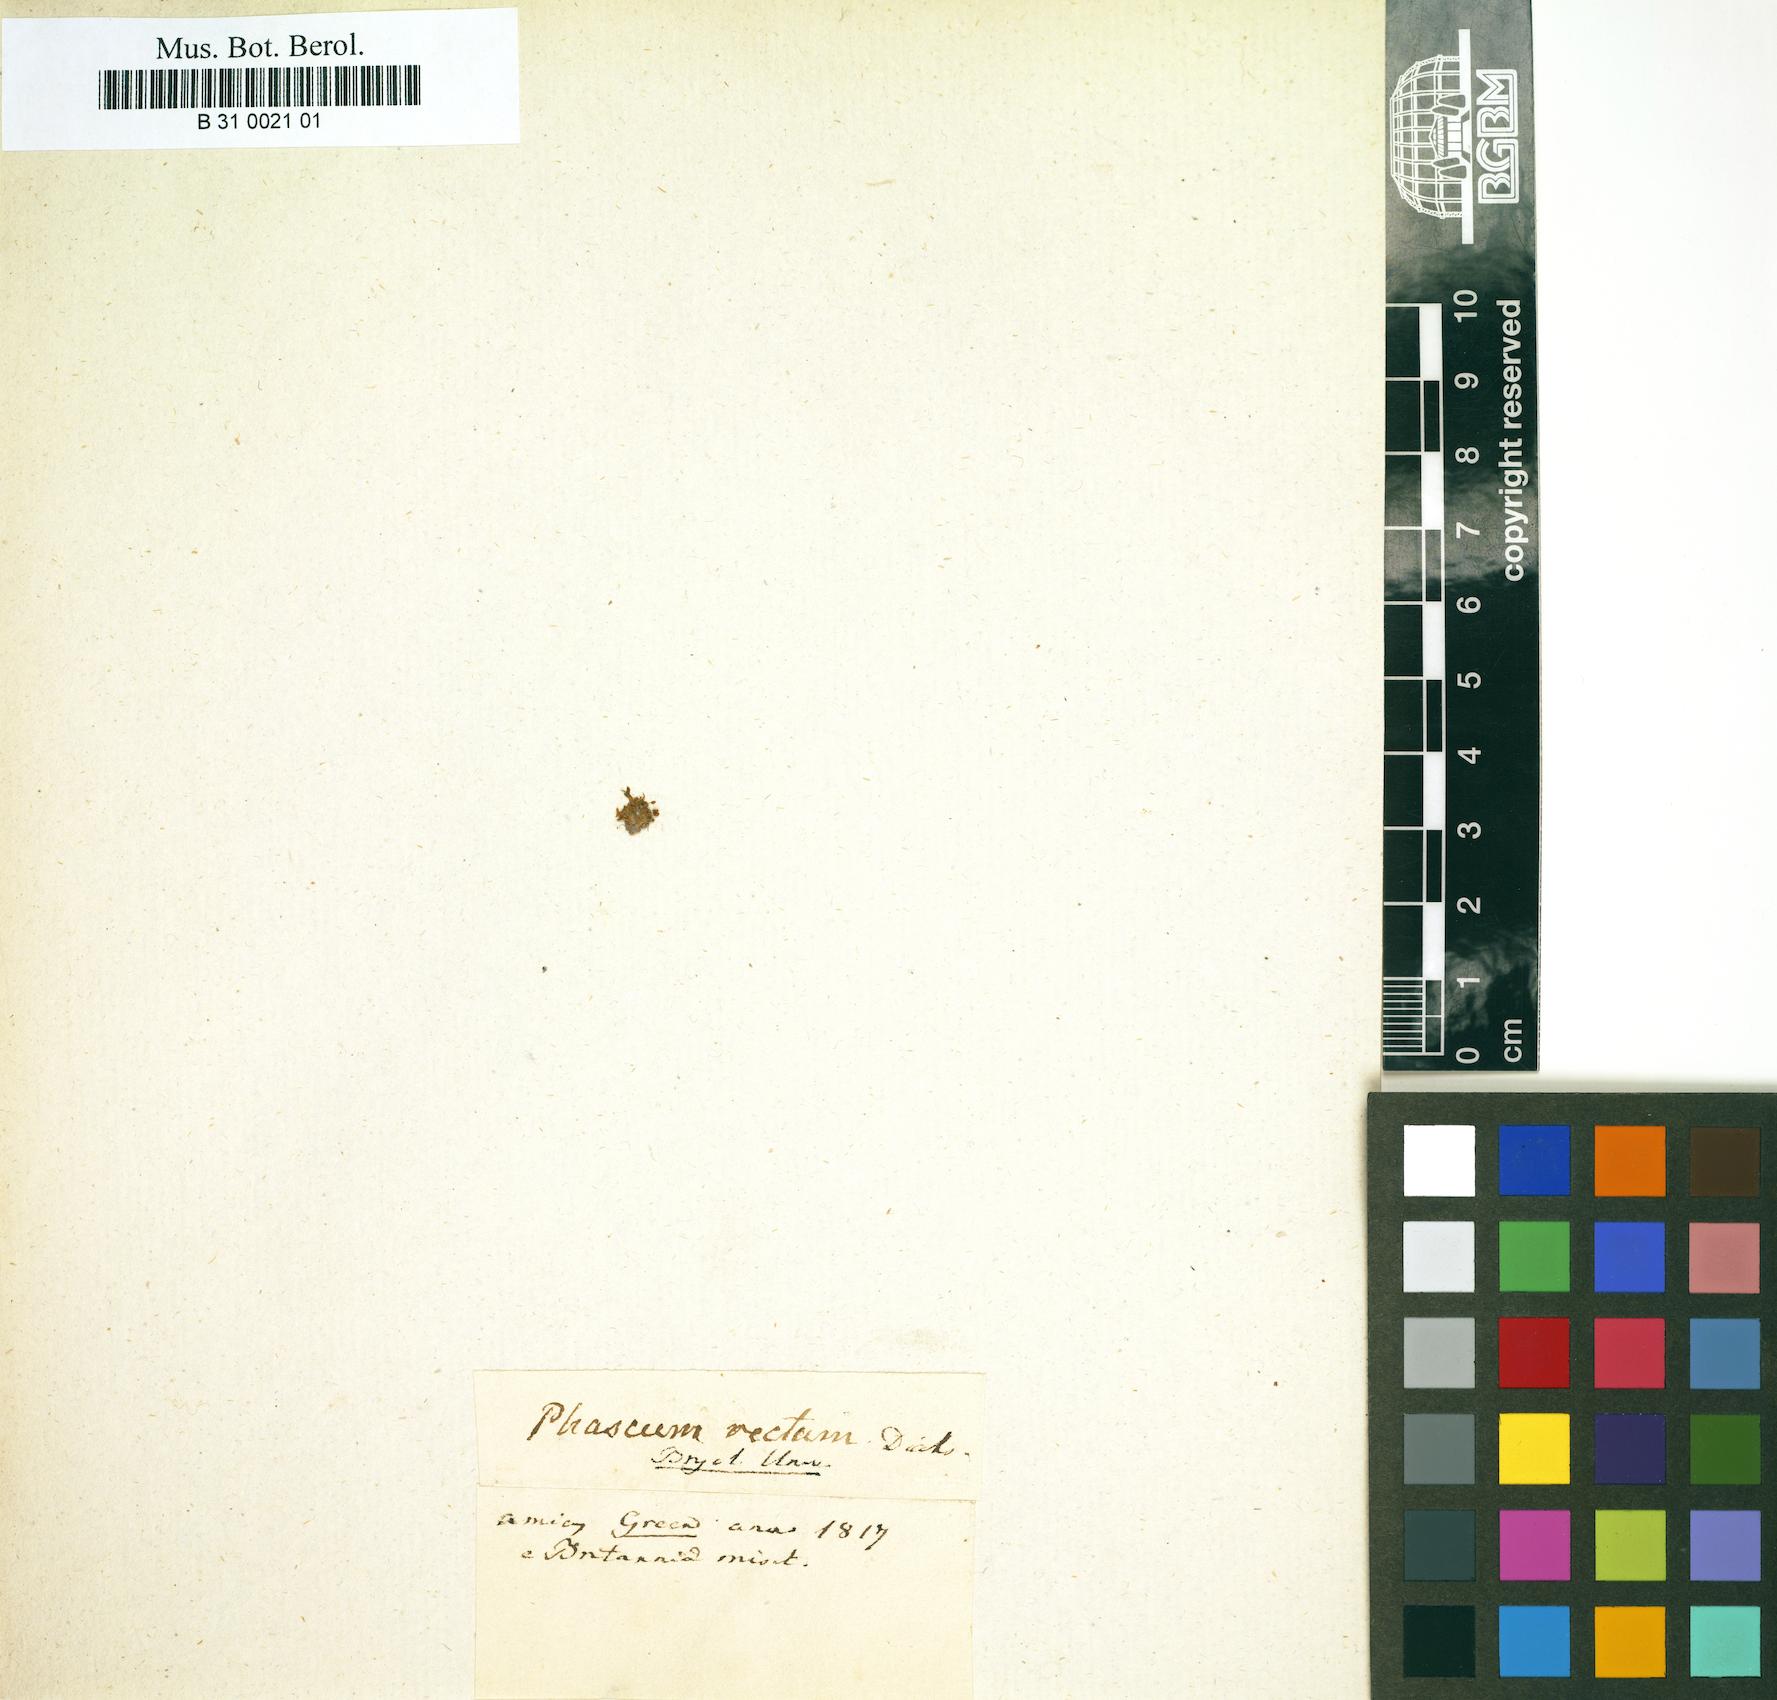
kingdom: Plantae
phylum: Bryophyta
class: Bryopsida
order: Pottiales
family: Pottiaceae
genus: Microbryum
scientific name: Microbryum rectum
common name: Upright pottia
